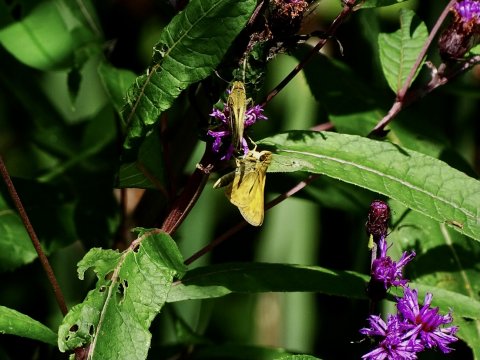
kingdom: Animalia
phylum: Arthropoda
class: Insecta
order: Lepidoptera
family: Hesperiidae
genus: Atalopedes
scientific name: Atalopedes campestris
